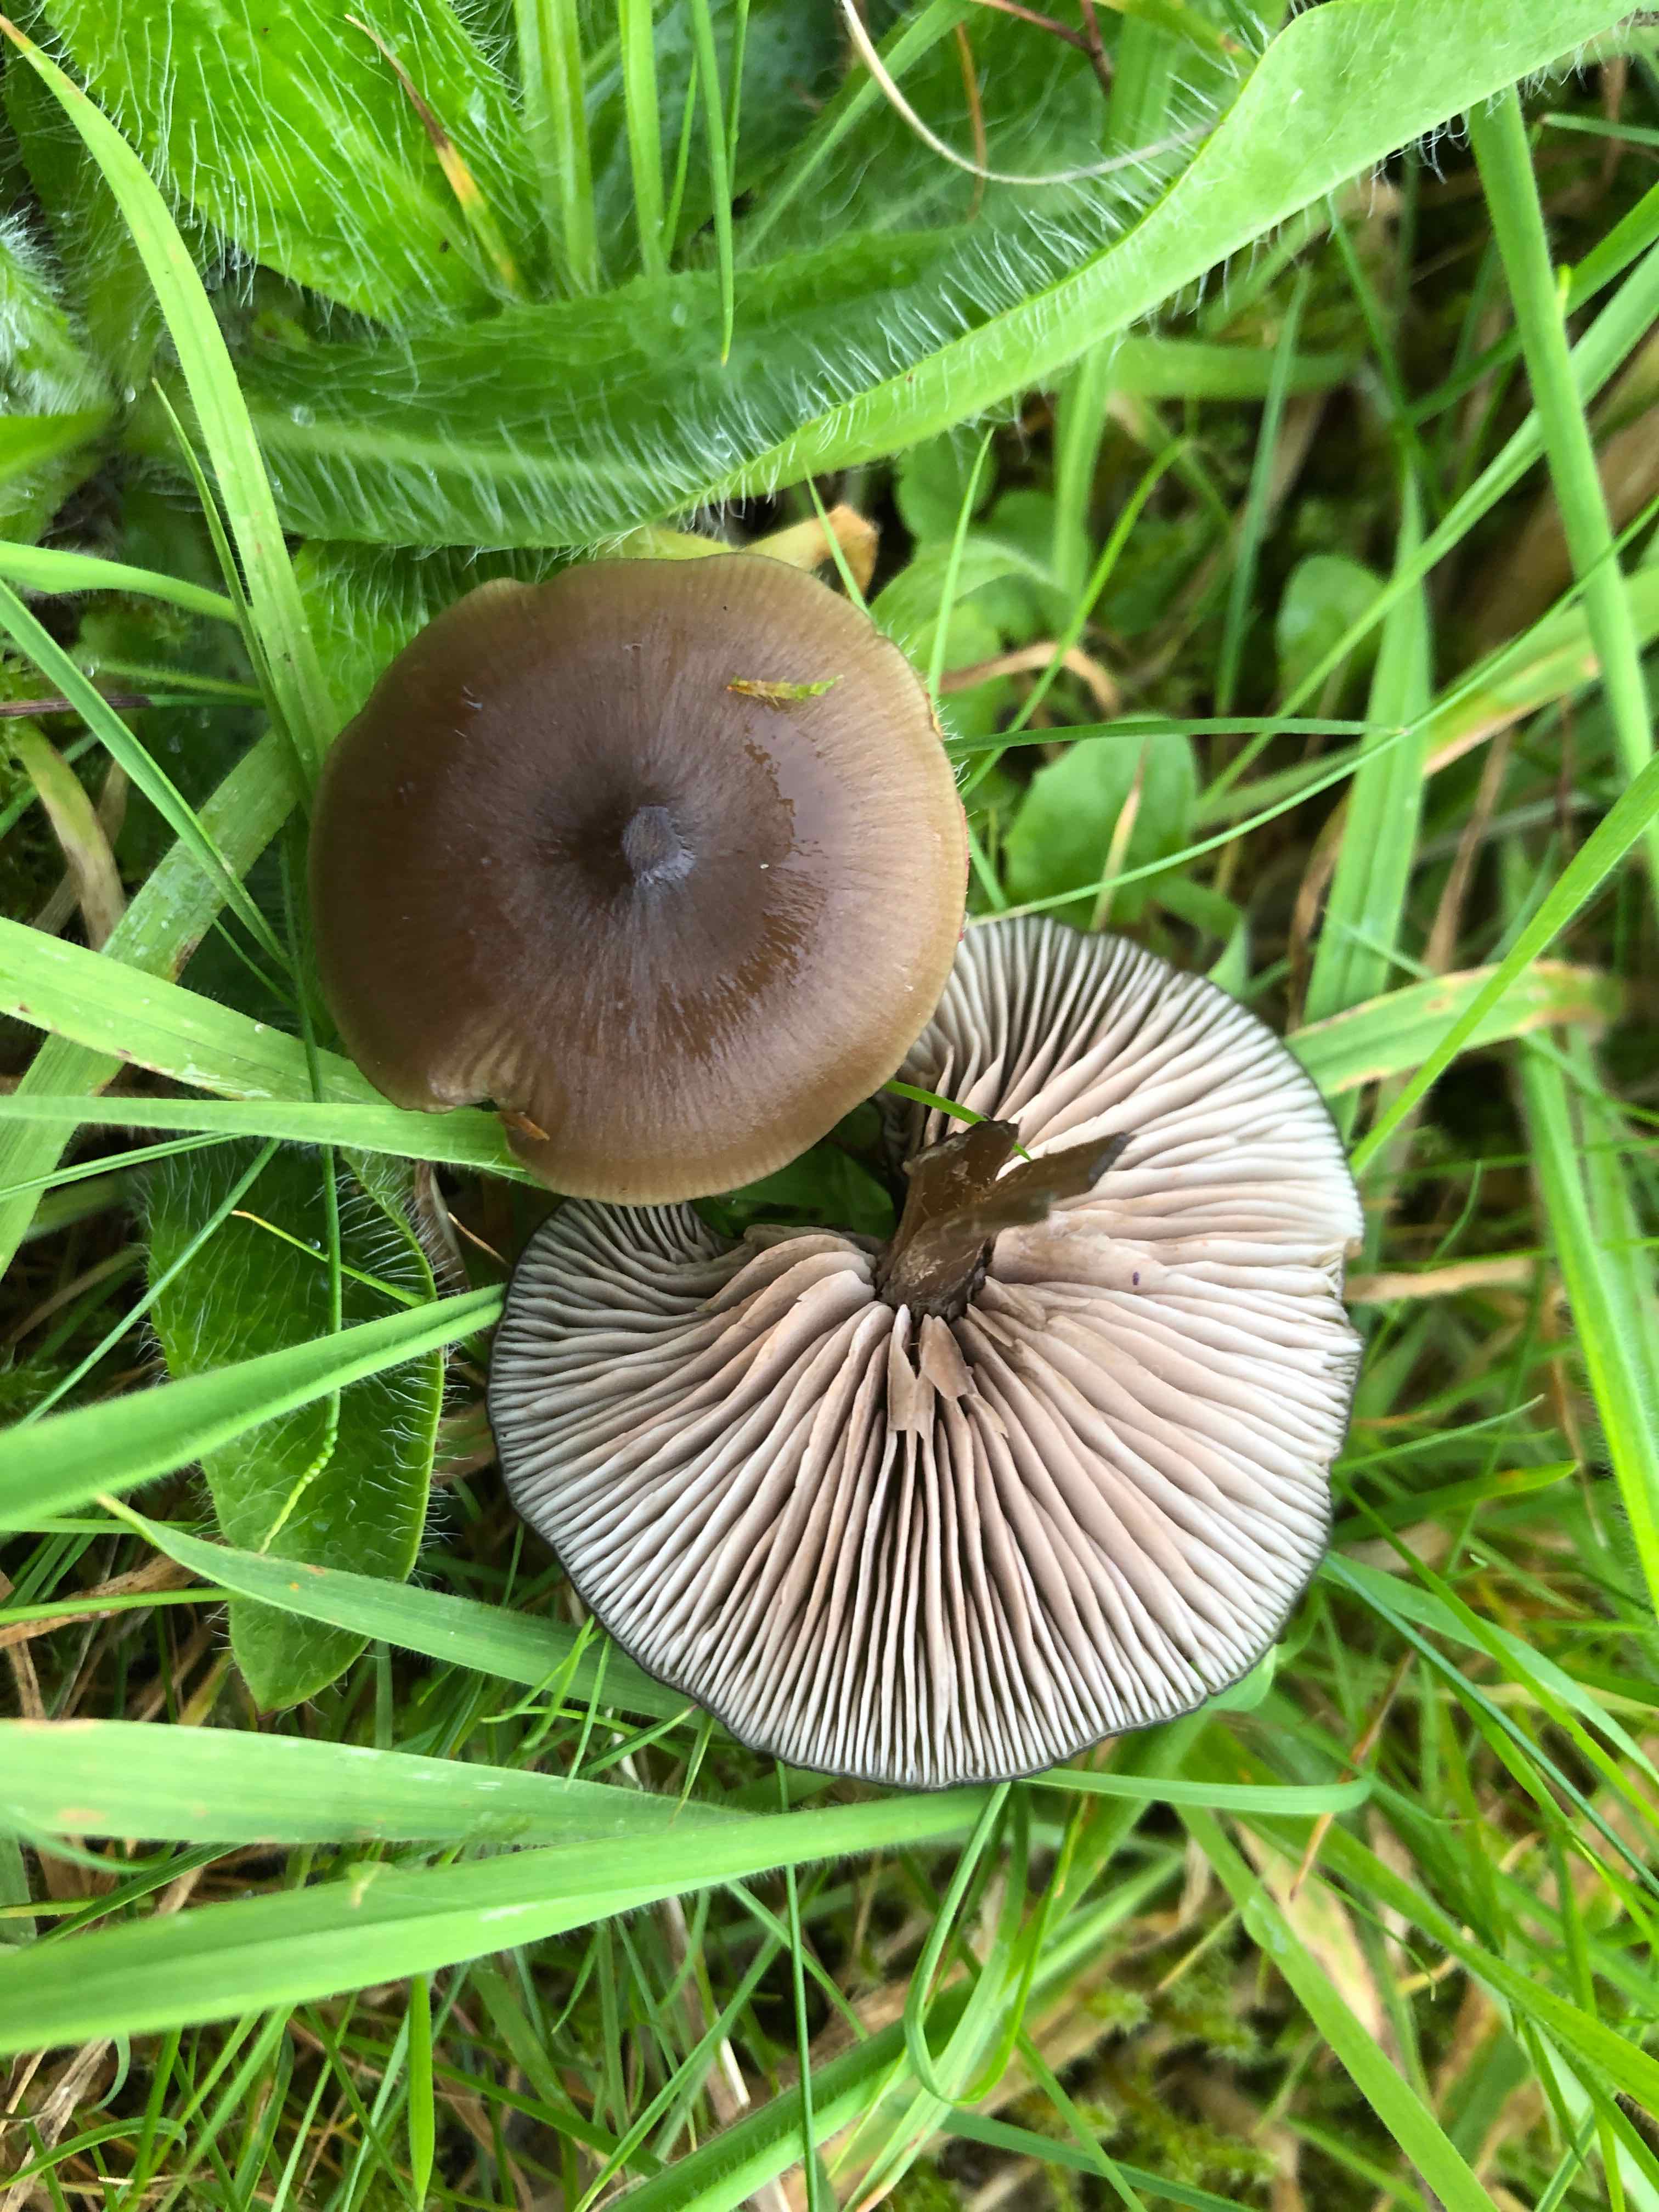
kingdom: Fungi
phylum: Basidiomycota
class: Agaricomycetes
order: Agaricales
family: Entolomataceae
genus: Entoloma
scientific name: Entoloma sericeum
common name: silkeglinsende rødblad
